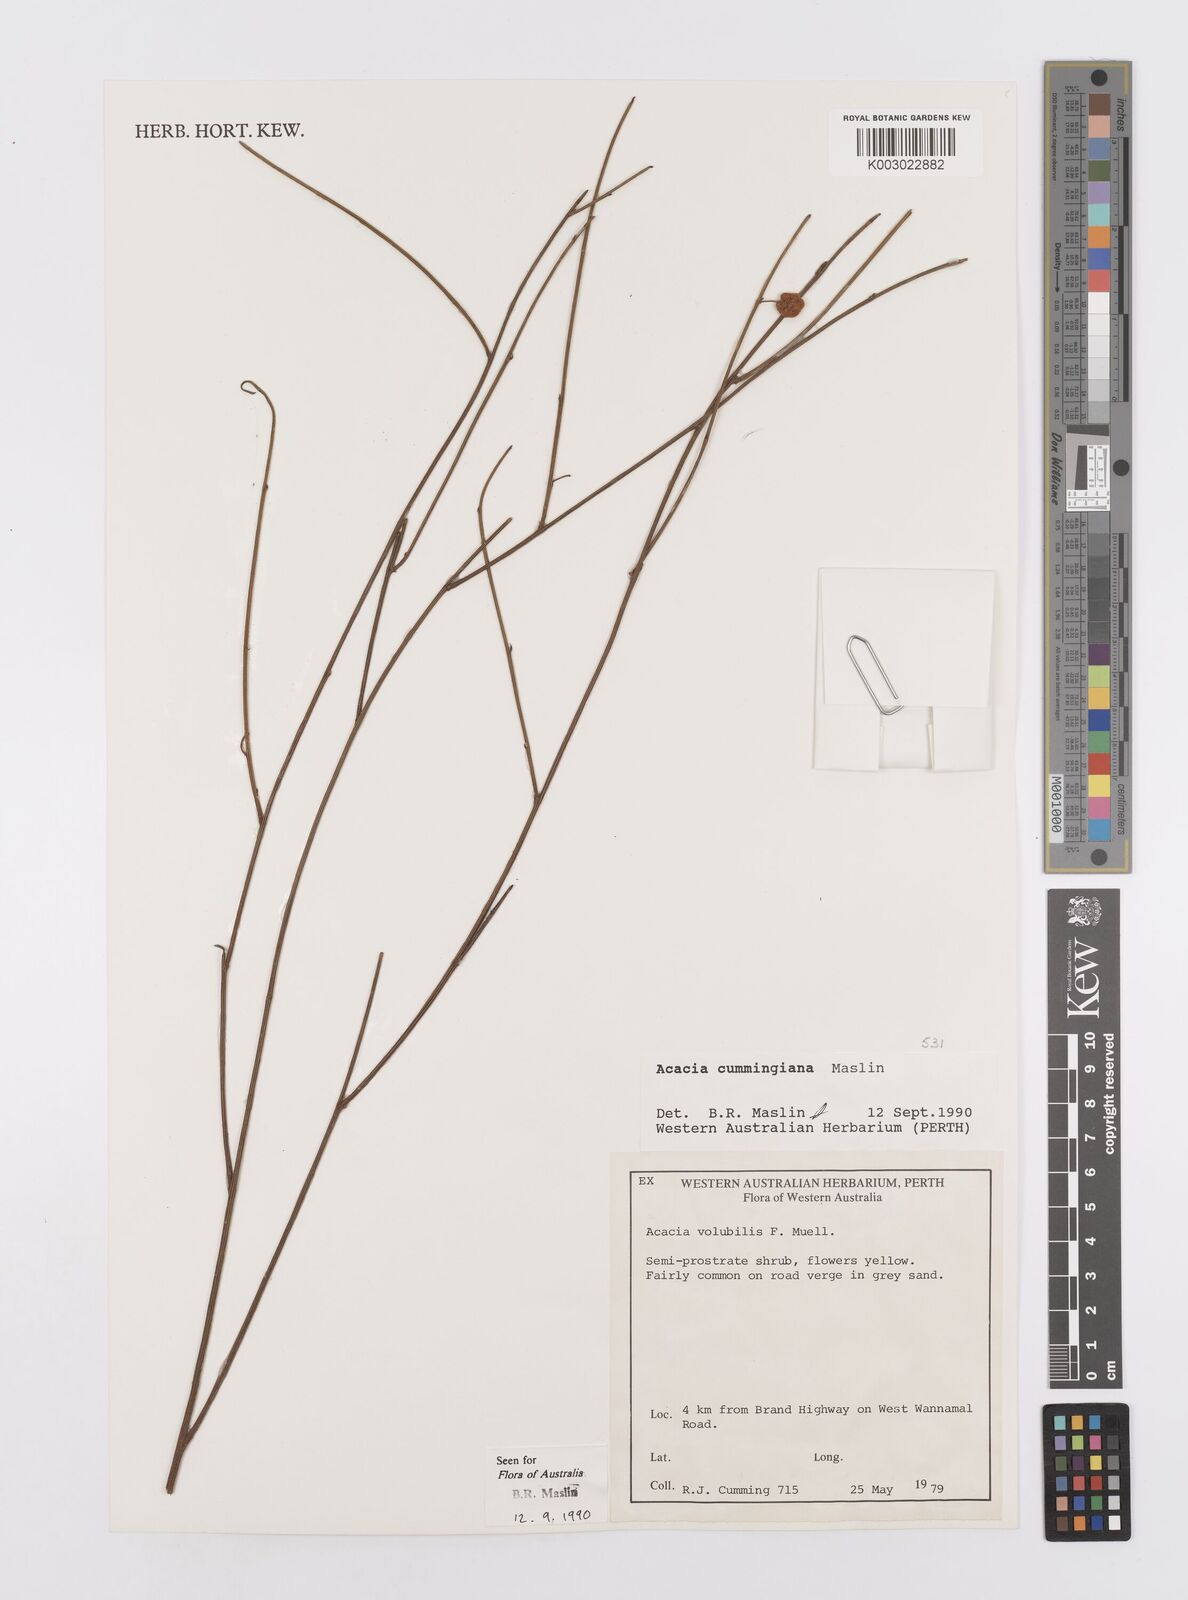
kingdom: Plantae
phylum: Tracheophyta
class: Magnoliopsida
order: Fabales
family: Fabaceae
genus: Acacia
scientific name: Acacia longispicata
